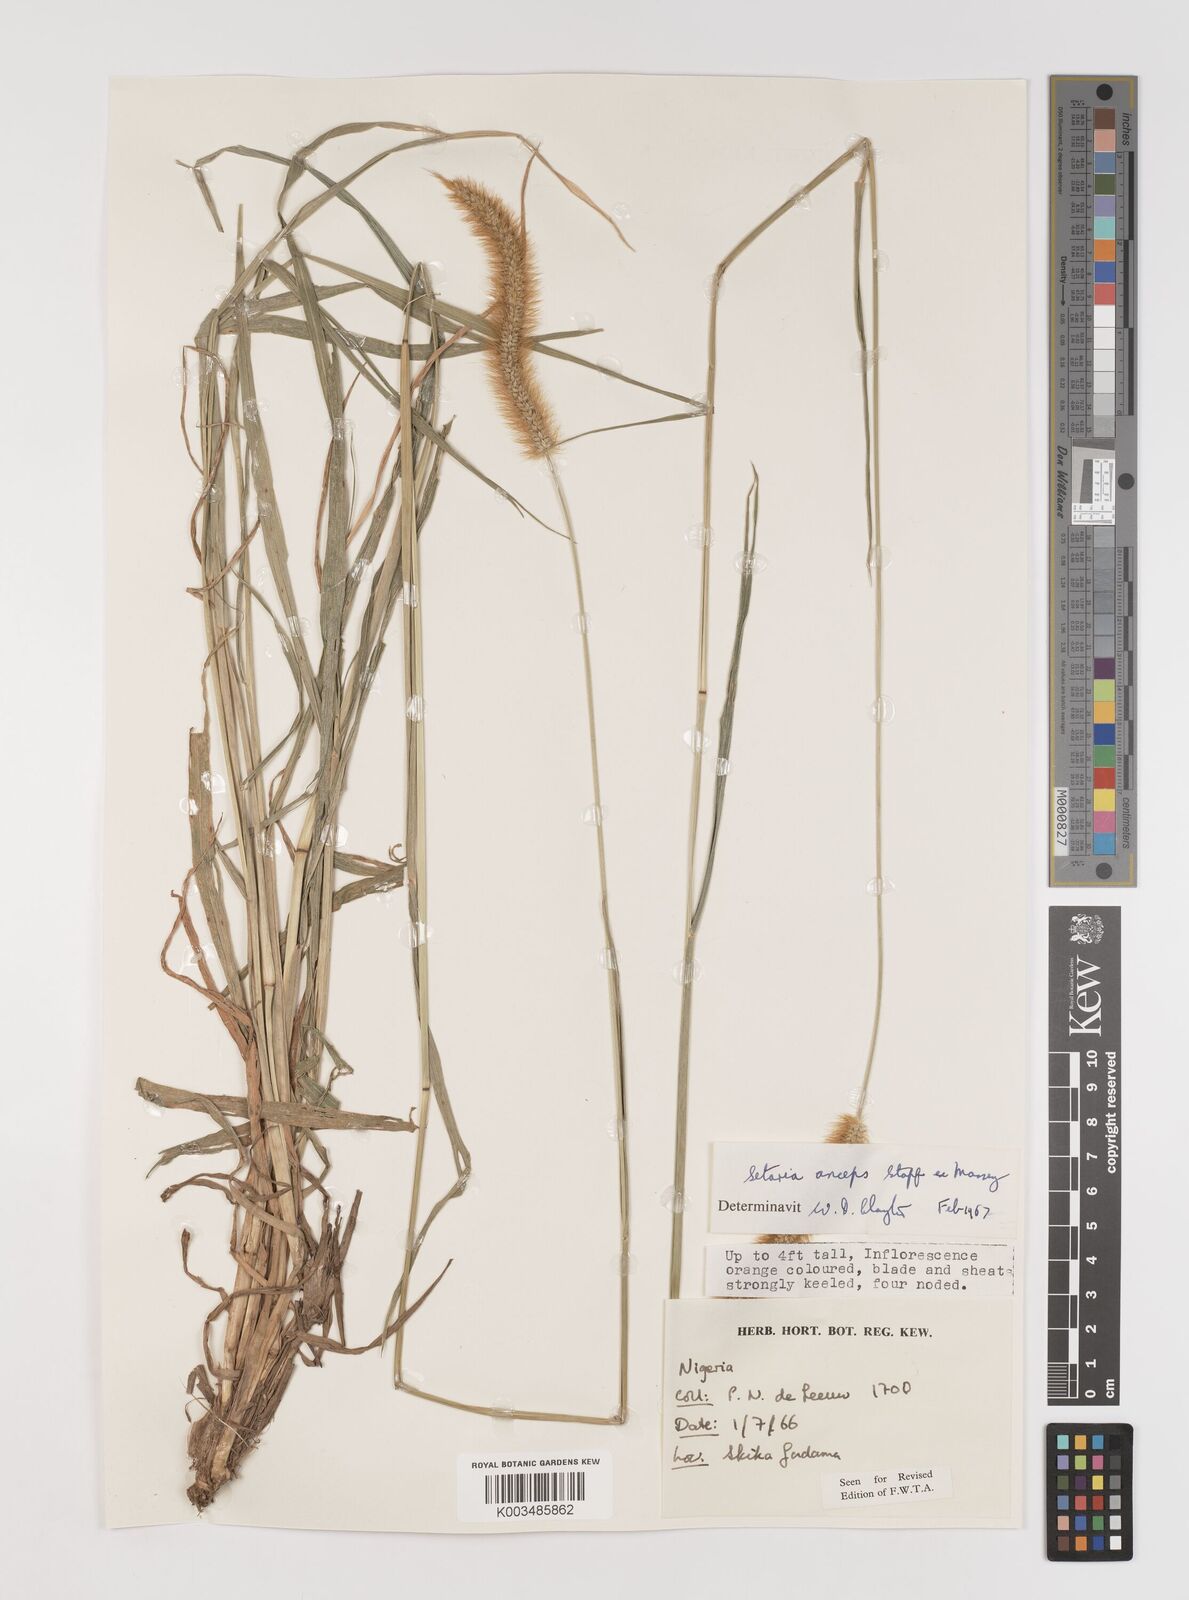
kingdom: Plantae
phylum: Tracheophyta
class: Liliopsida
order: Poales
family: Poaceae
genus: Setaria
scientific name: Setaria sphacelata
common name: African bristlegrass
